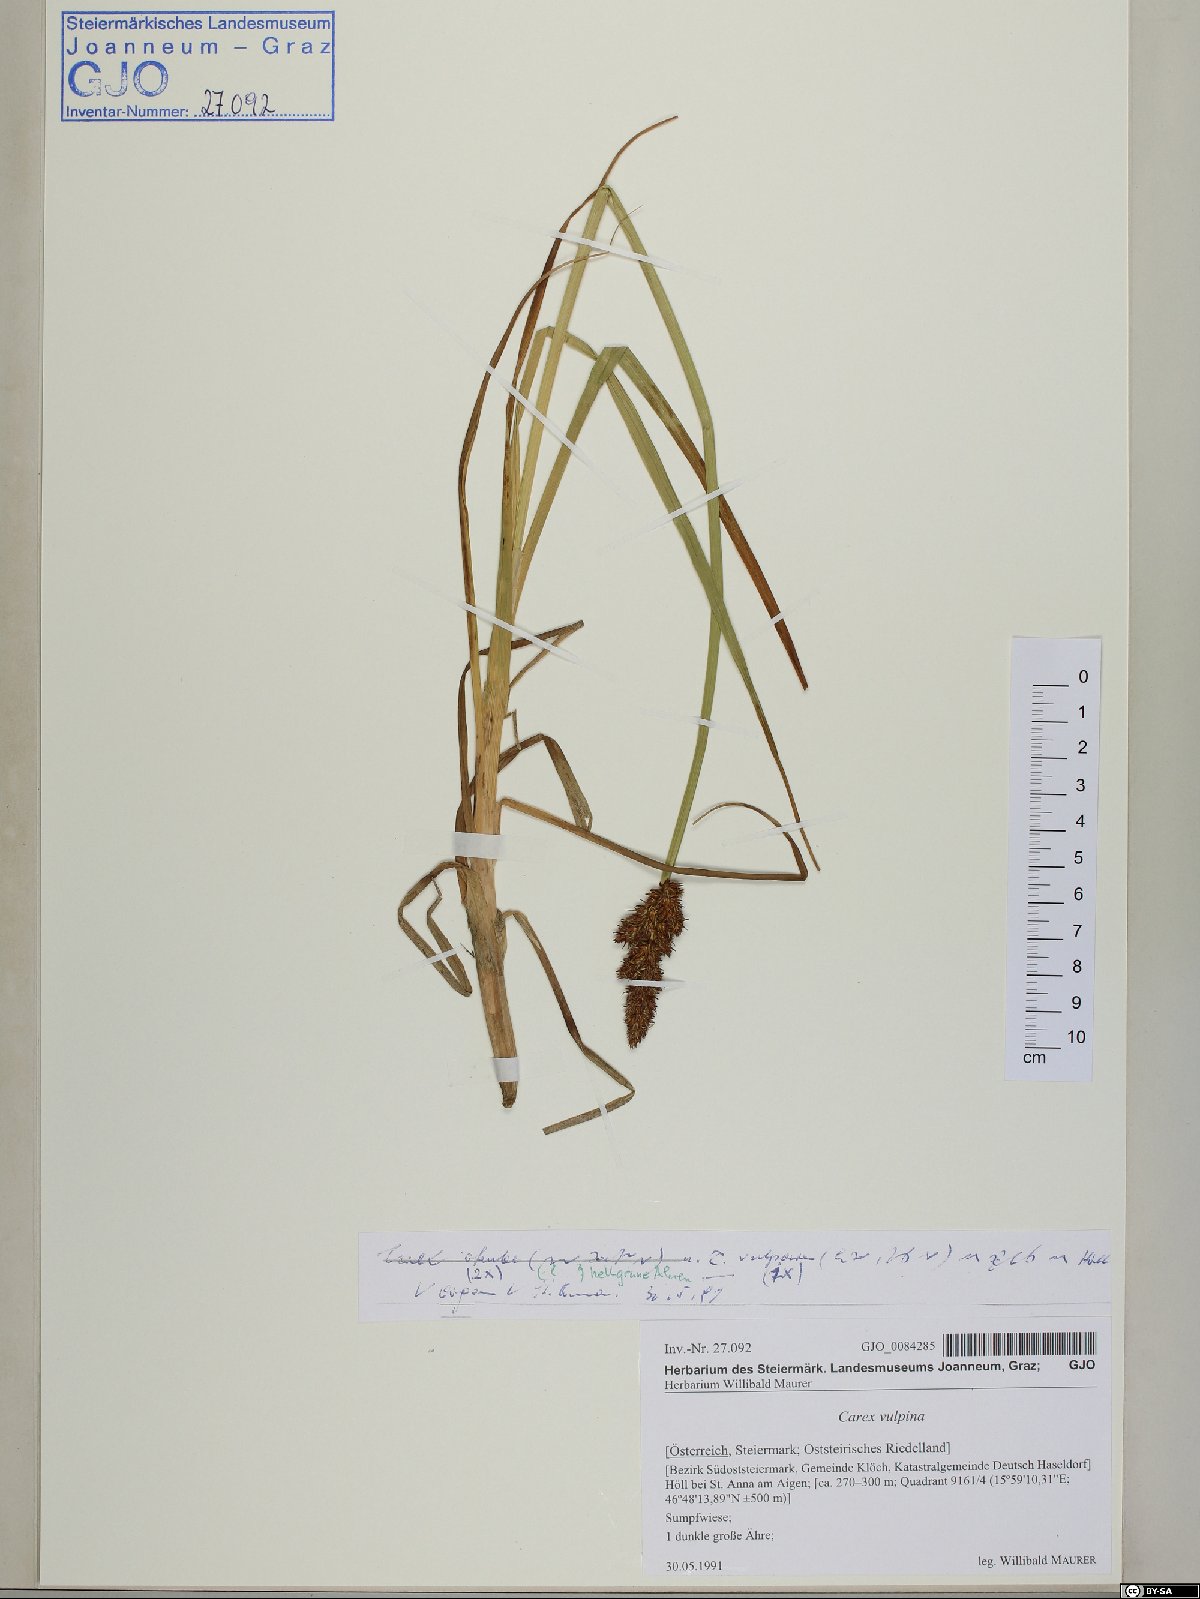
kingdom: Plantae
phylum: Tracheophyta
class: Liliopsida
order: Poales
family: Cyperaceae
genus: Carex
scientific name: Carex vulpina
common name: True fox-sedge
